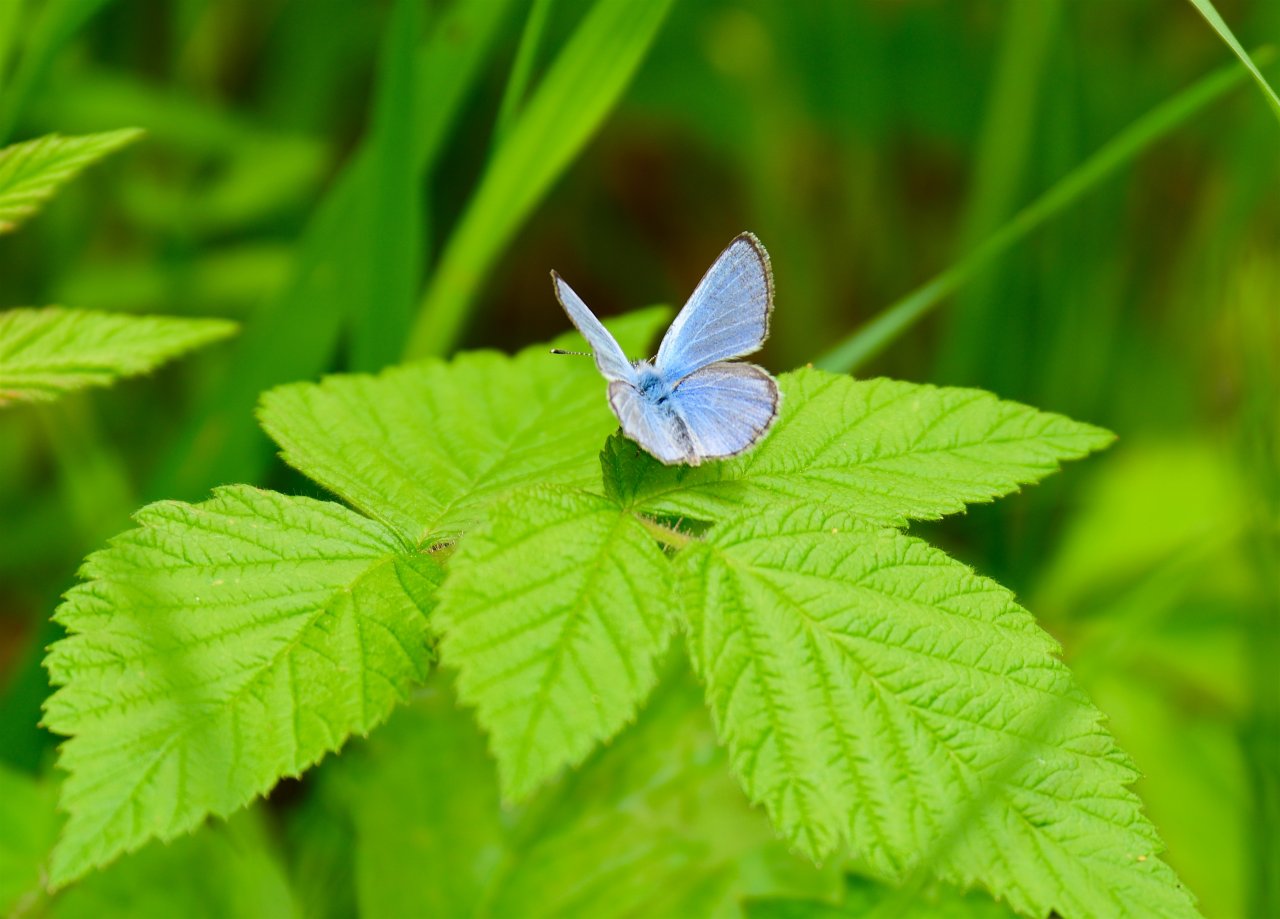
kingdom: Animalia
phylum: Arthropoda
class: Insecta
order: Lepidoptera
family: Lycaenidae
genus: Glaucopsyche
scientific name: Glaucopsyche lygdamus
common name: Silvery Blue
